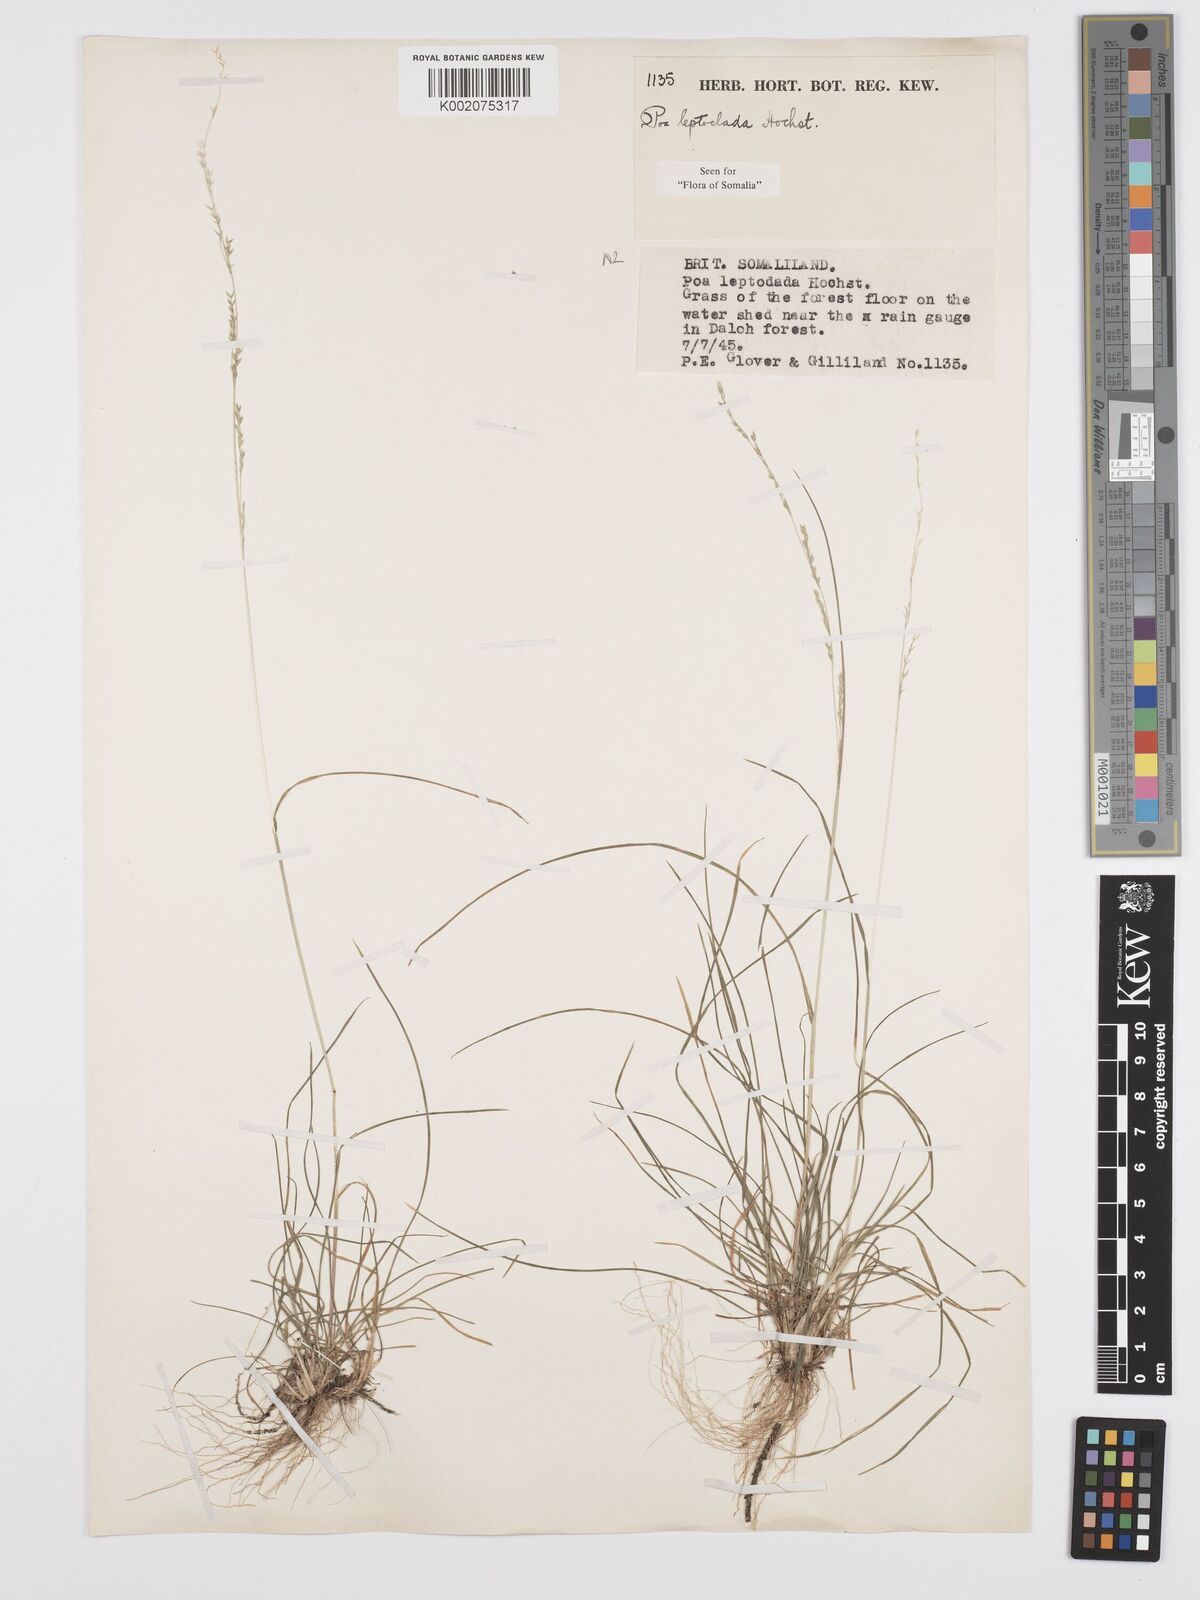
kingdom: Plantae
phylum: Tracheophyta
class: Liliopsida
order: Poales
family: Poaceae
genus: Poa
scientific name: Poa leptoclada
